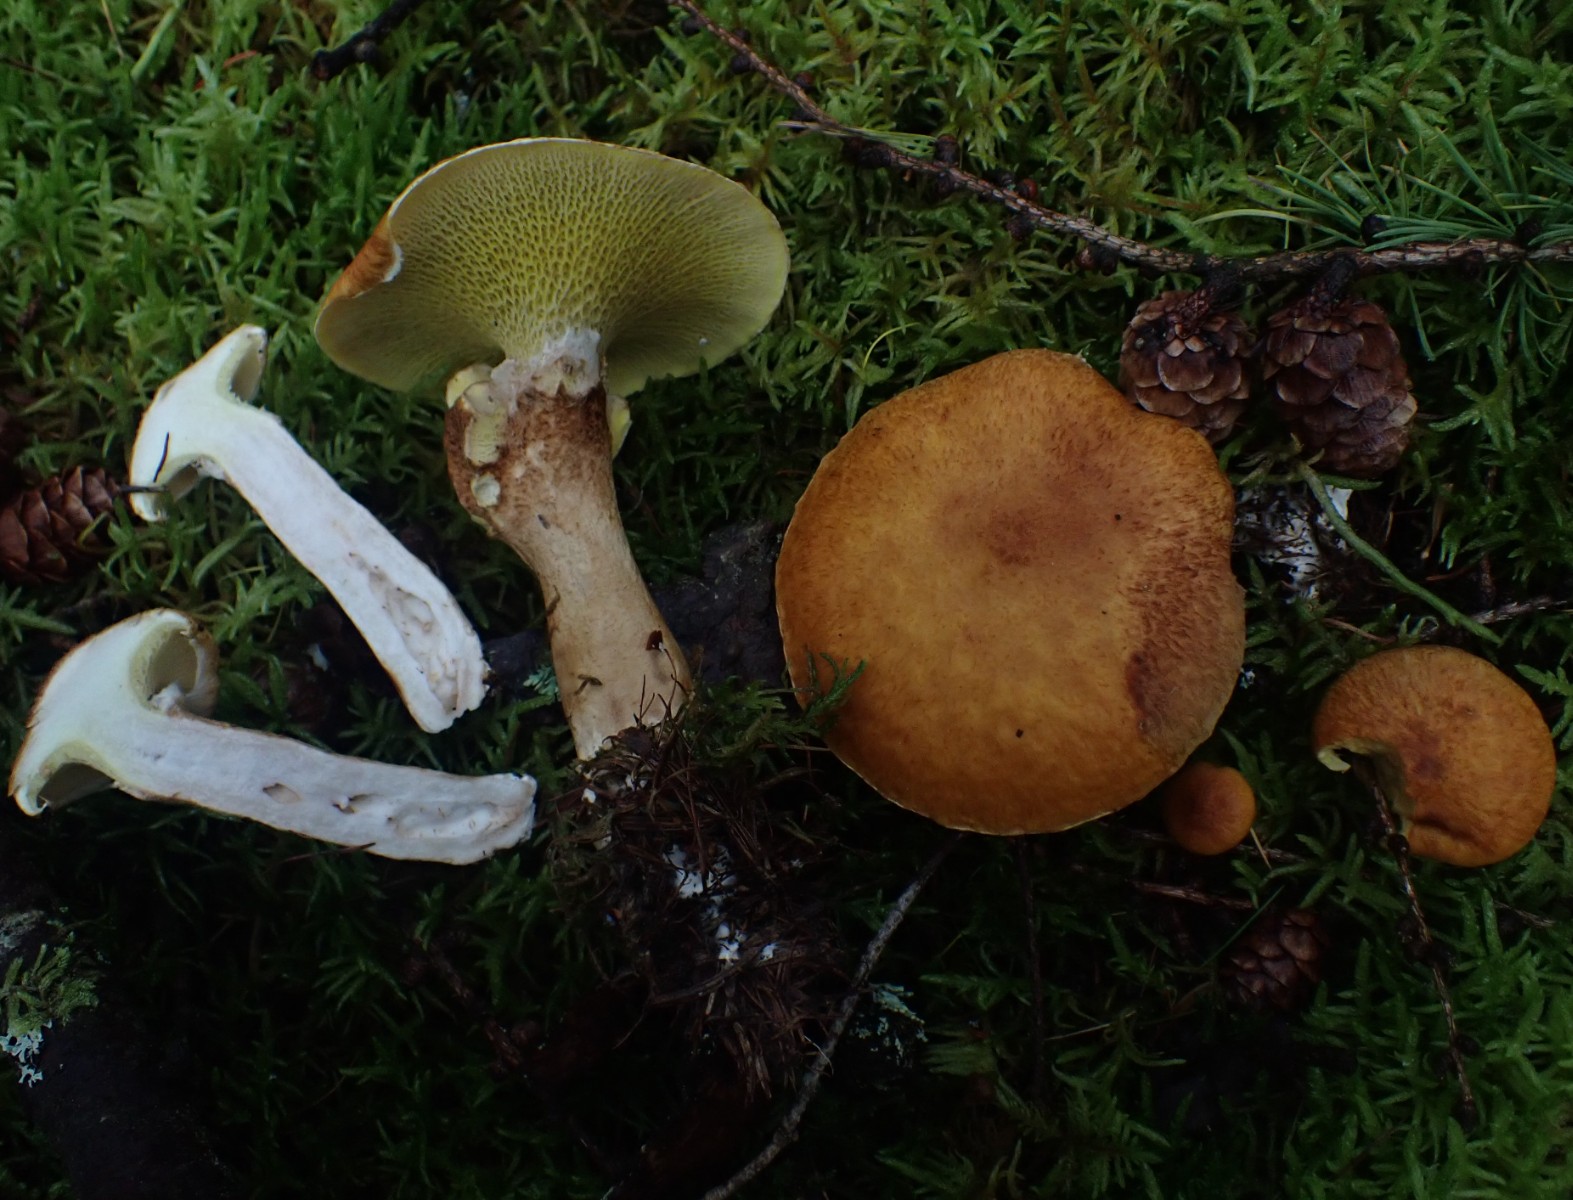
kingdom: Fungi
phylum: Basidiomycota
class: Agaricomycetes
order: Boletales
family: Suillaceae
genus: Suillus
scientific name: Suillus cavipes
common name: hulstokket slimrørhat
